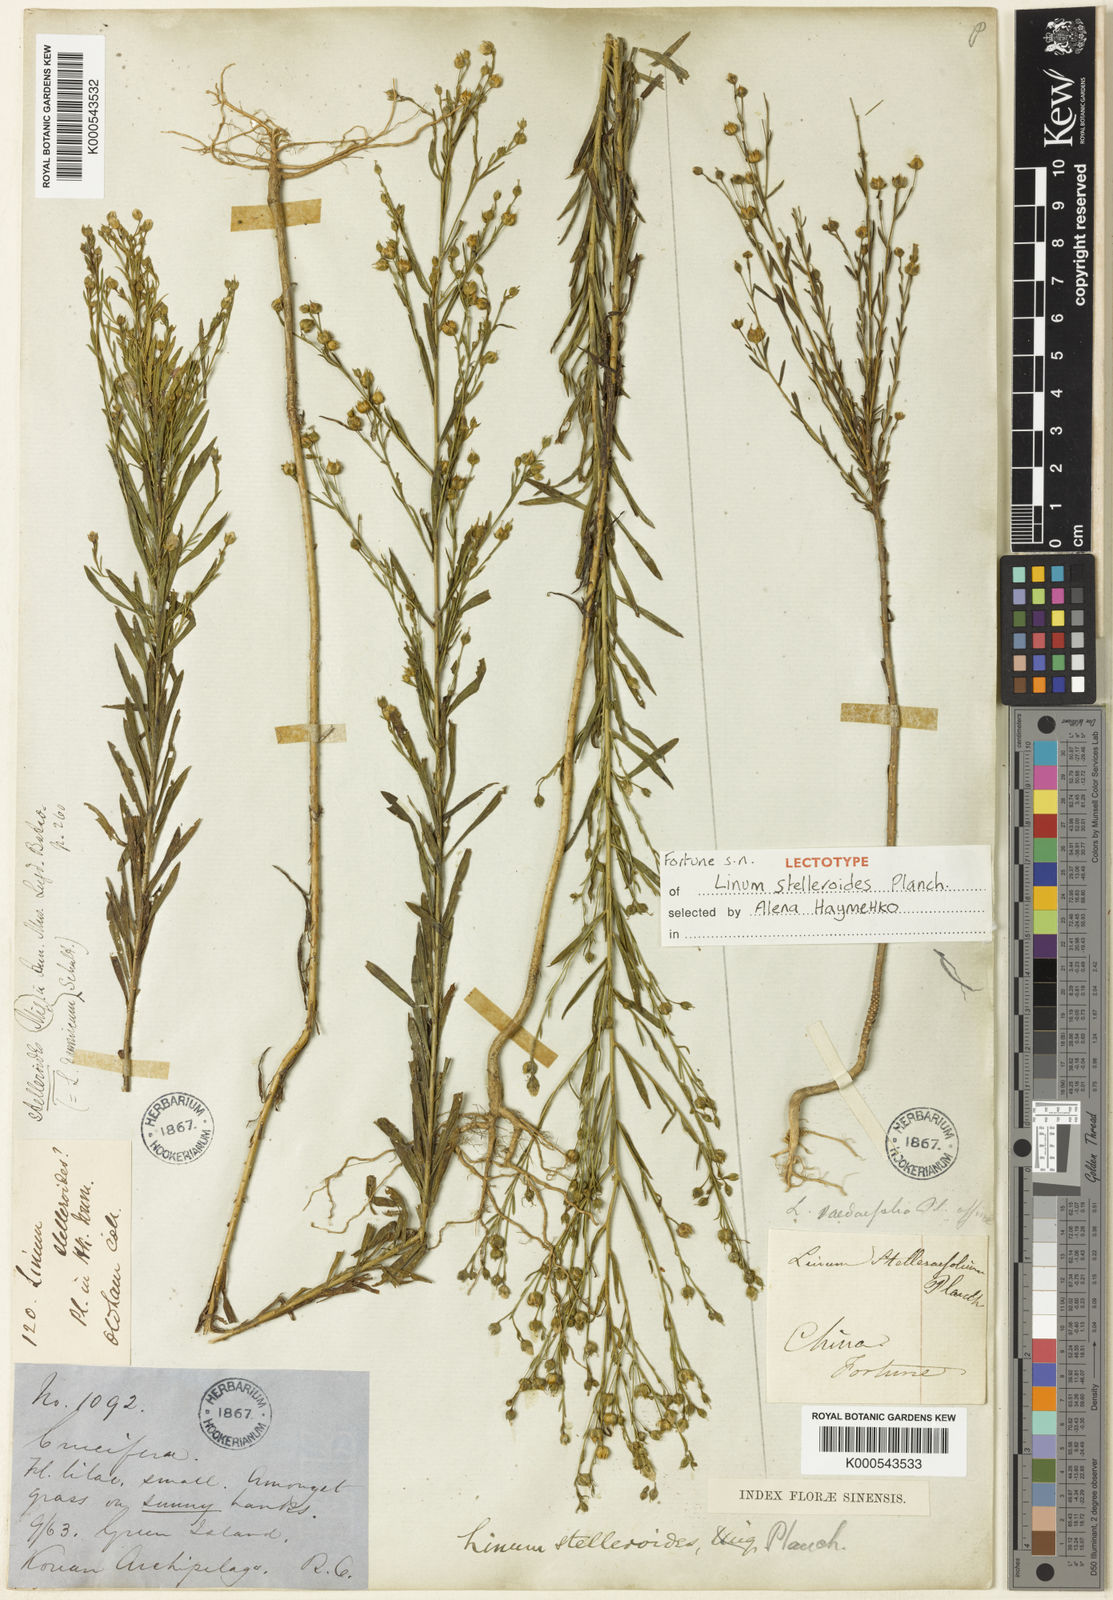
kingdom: Plantae
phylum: Tracheophyta
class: Magnoliopsida
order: Malpighiales
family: Linaceae
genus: Linum
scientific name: Linum stelleroides
